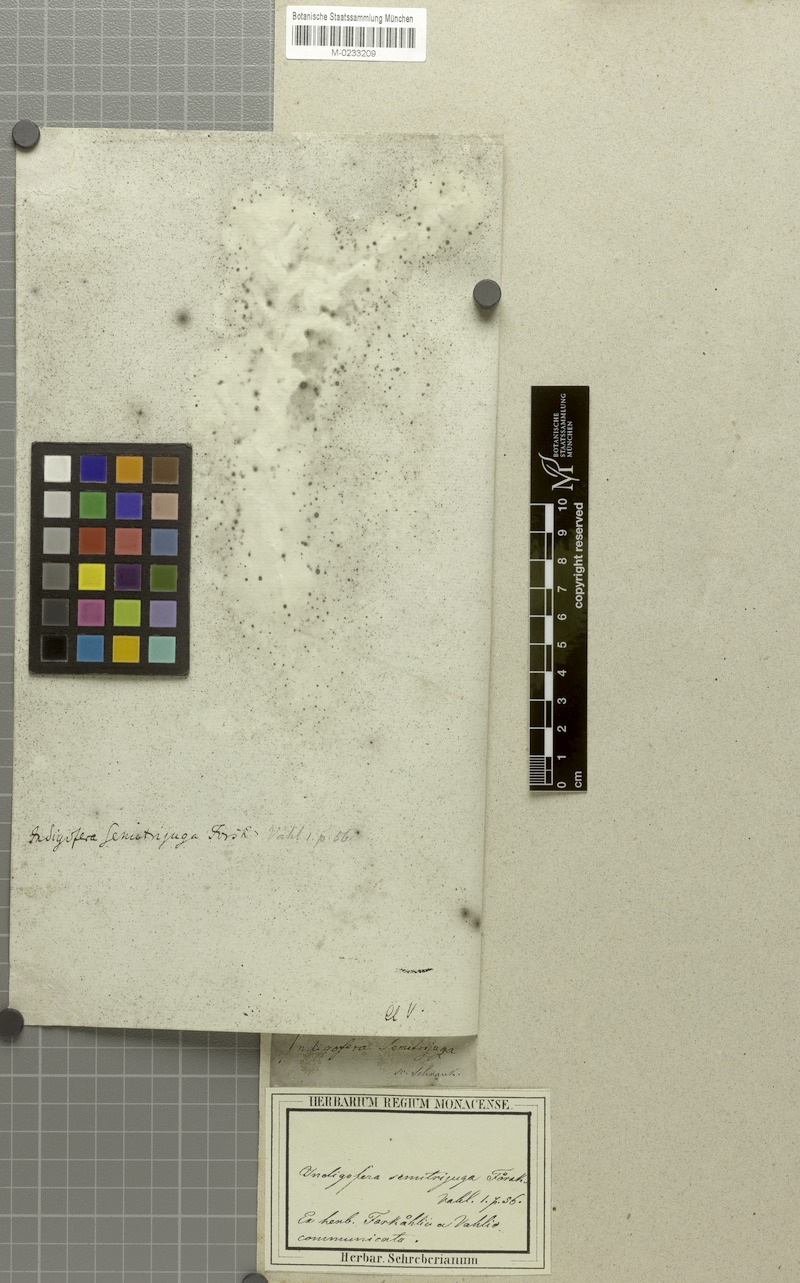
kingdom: Plantae
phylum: Tracheophyta
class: Magnoliopsida
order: Fabales
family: Fabaceae
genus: Indigofera
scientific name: Indigofera semitrijuga
